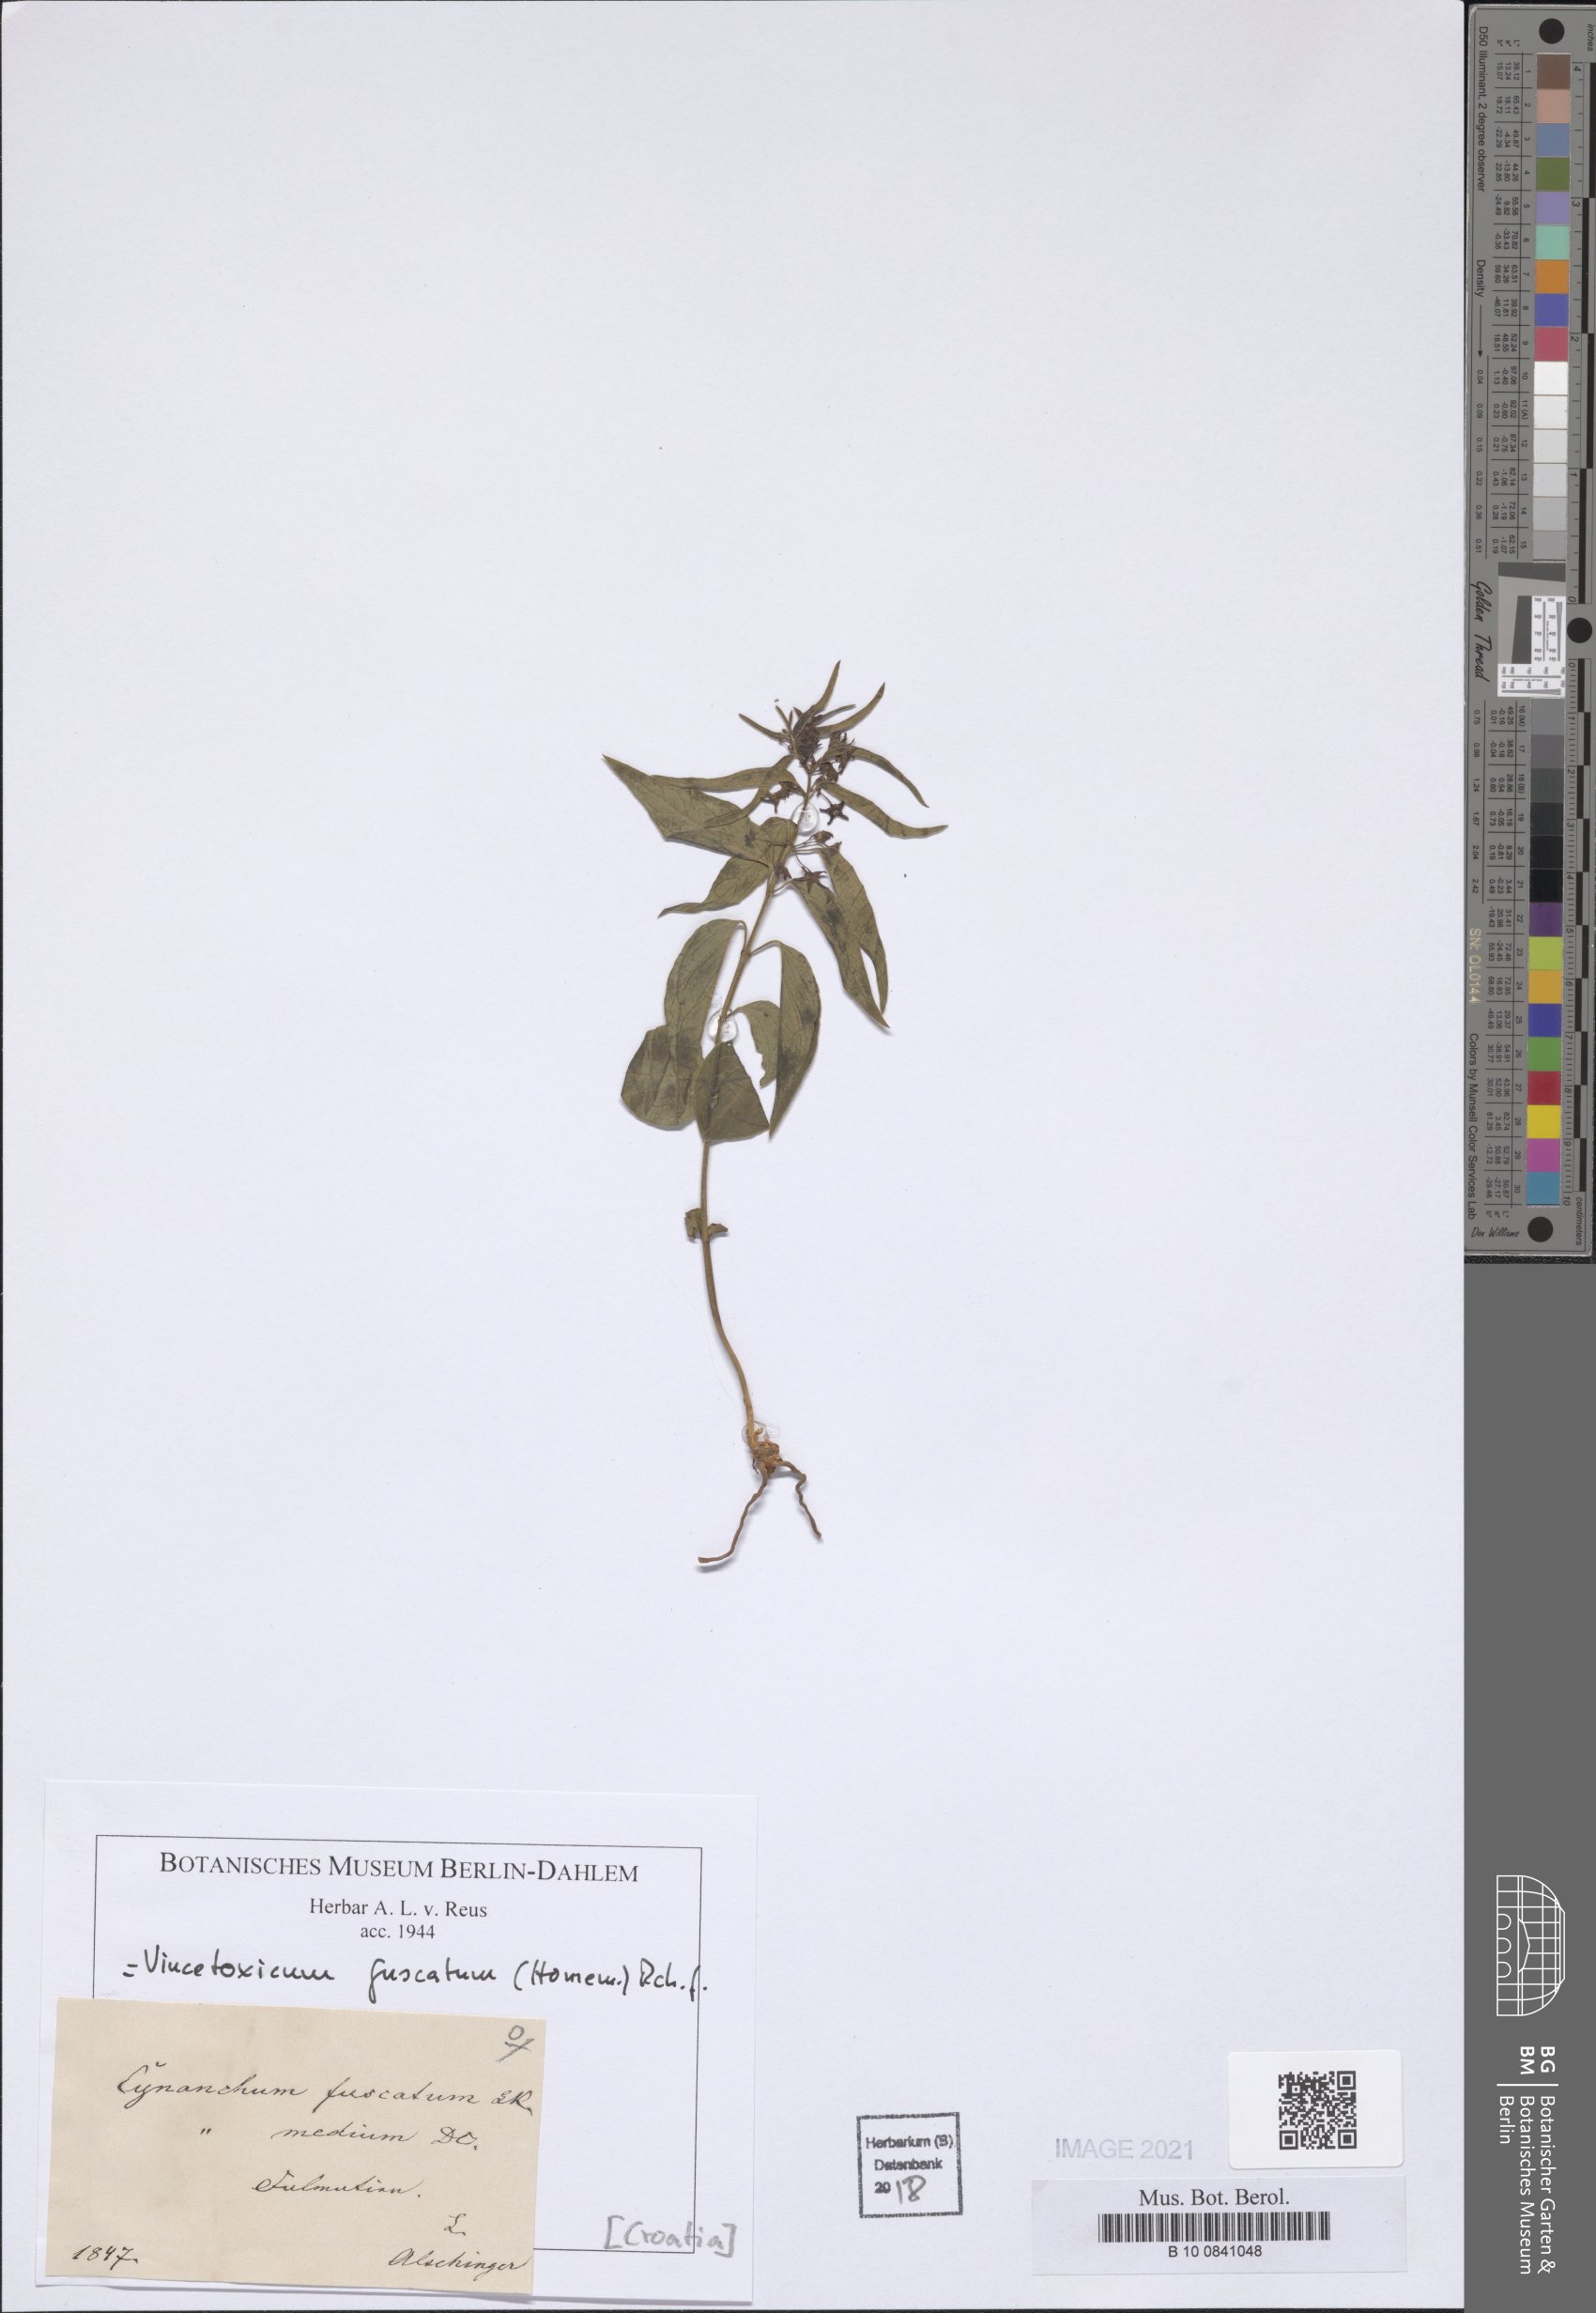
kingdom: Plantae
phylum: Tracheophyta
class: Magnoliopsida
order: Gentianales
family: Apocynaceae
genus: Vincetoxicum
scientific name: Vincetoxicum fuscatum
